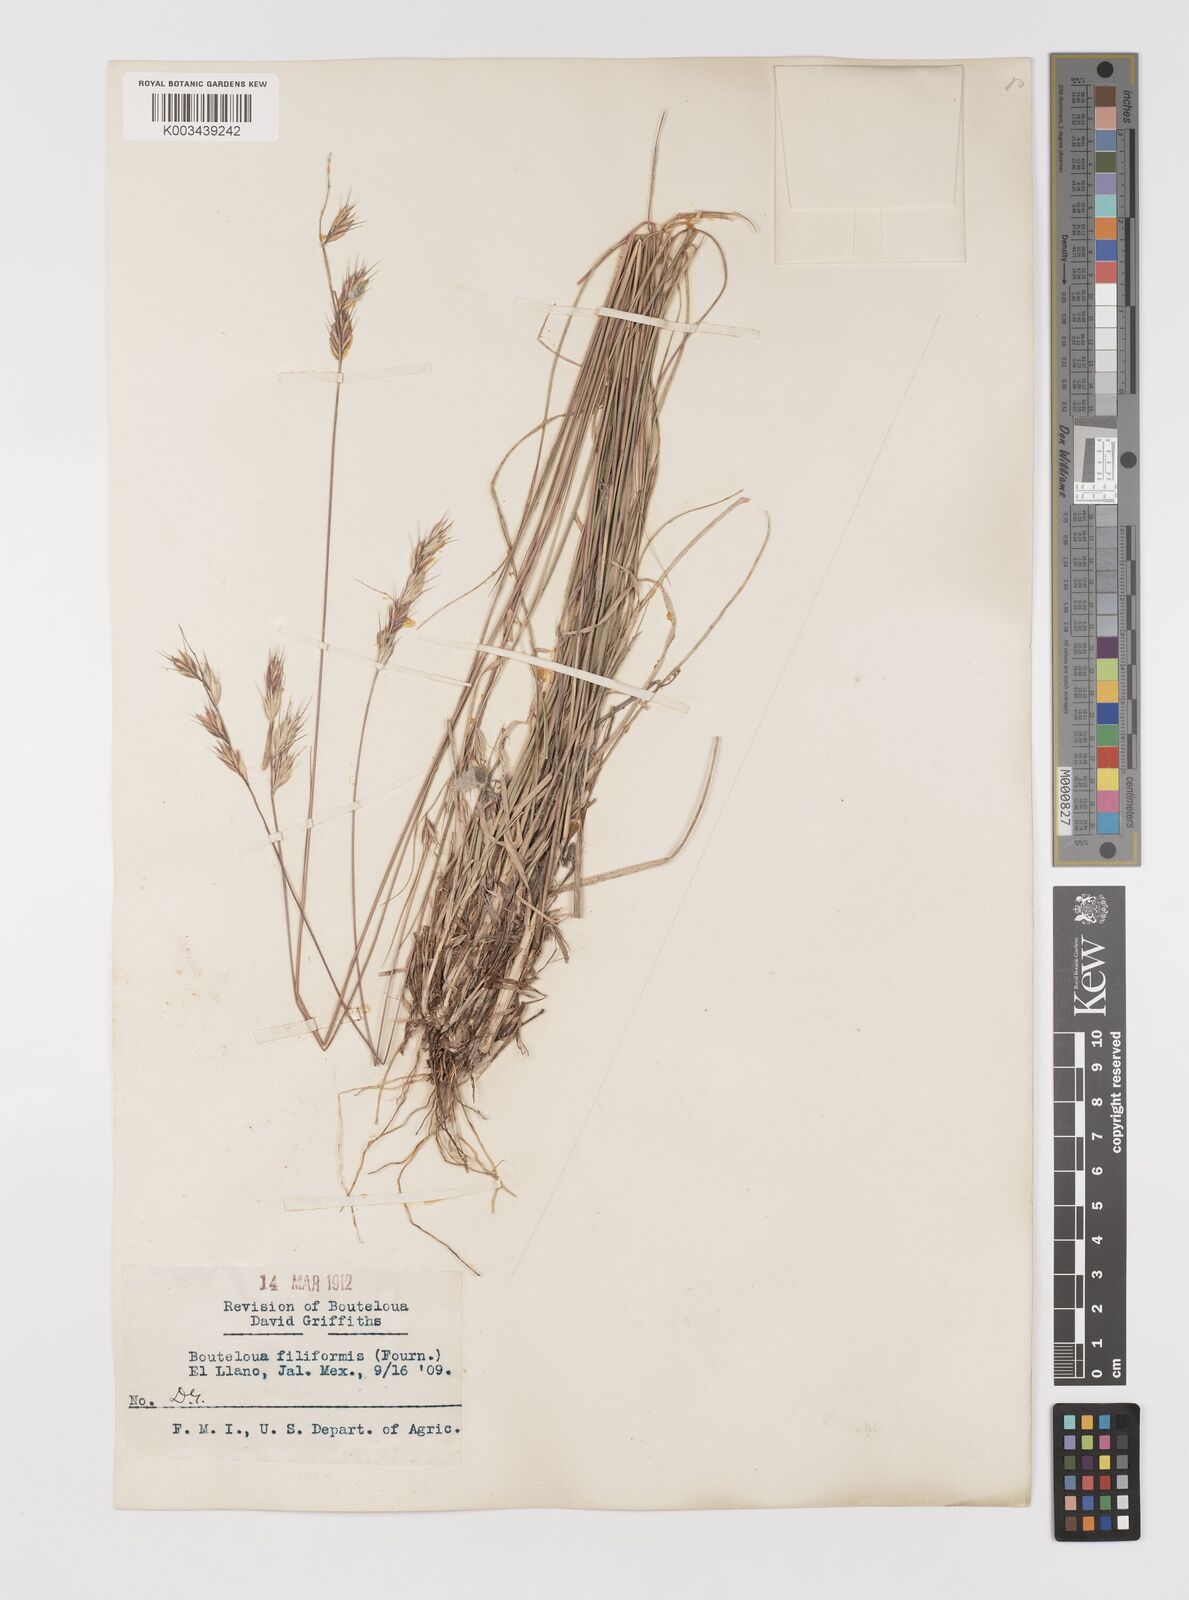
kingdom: Plantae
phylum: Tracheophyta
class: Liliopsida
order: Poales
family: Poaceae
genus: Bouteloua
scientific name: Bouteloua repens
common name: Slender grama
